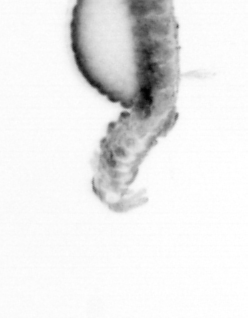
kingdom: Animalia
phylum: Annelida
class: Polychaeta
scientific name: Polychaeta
